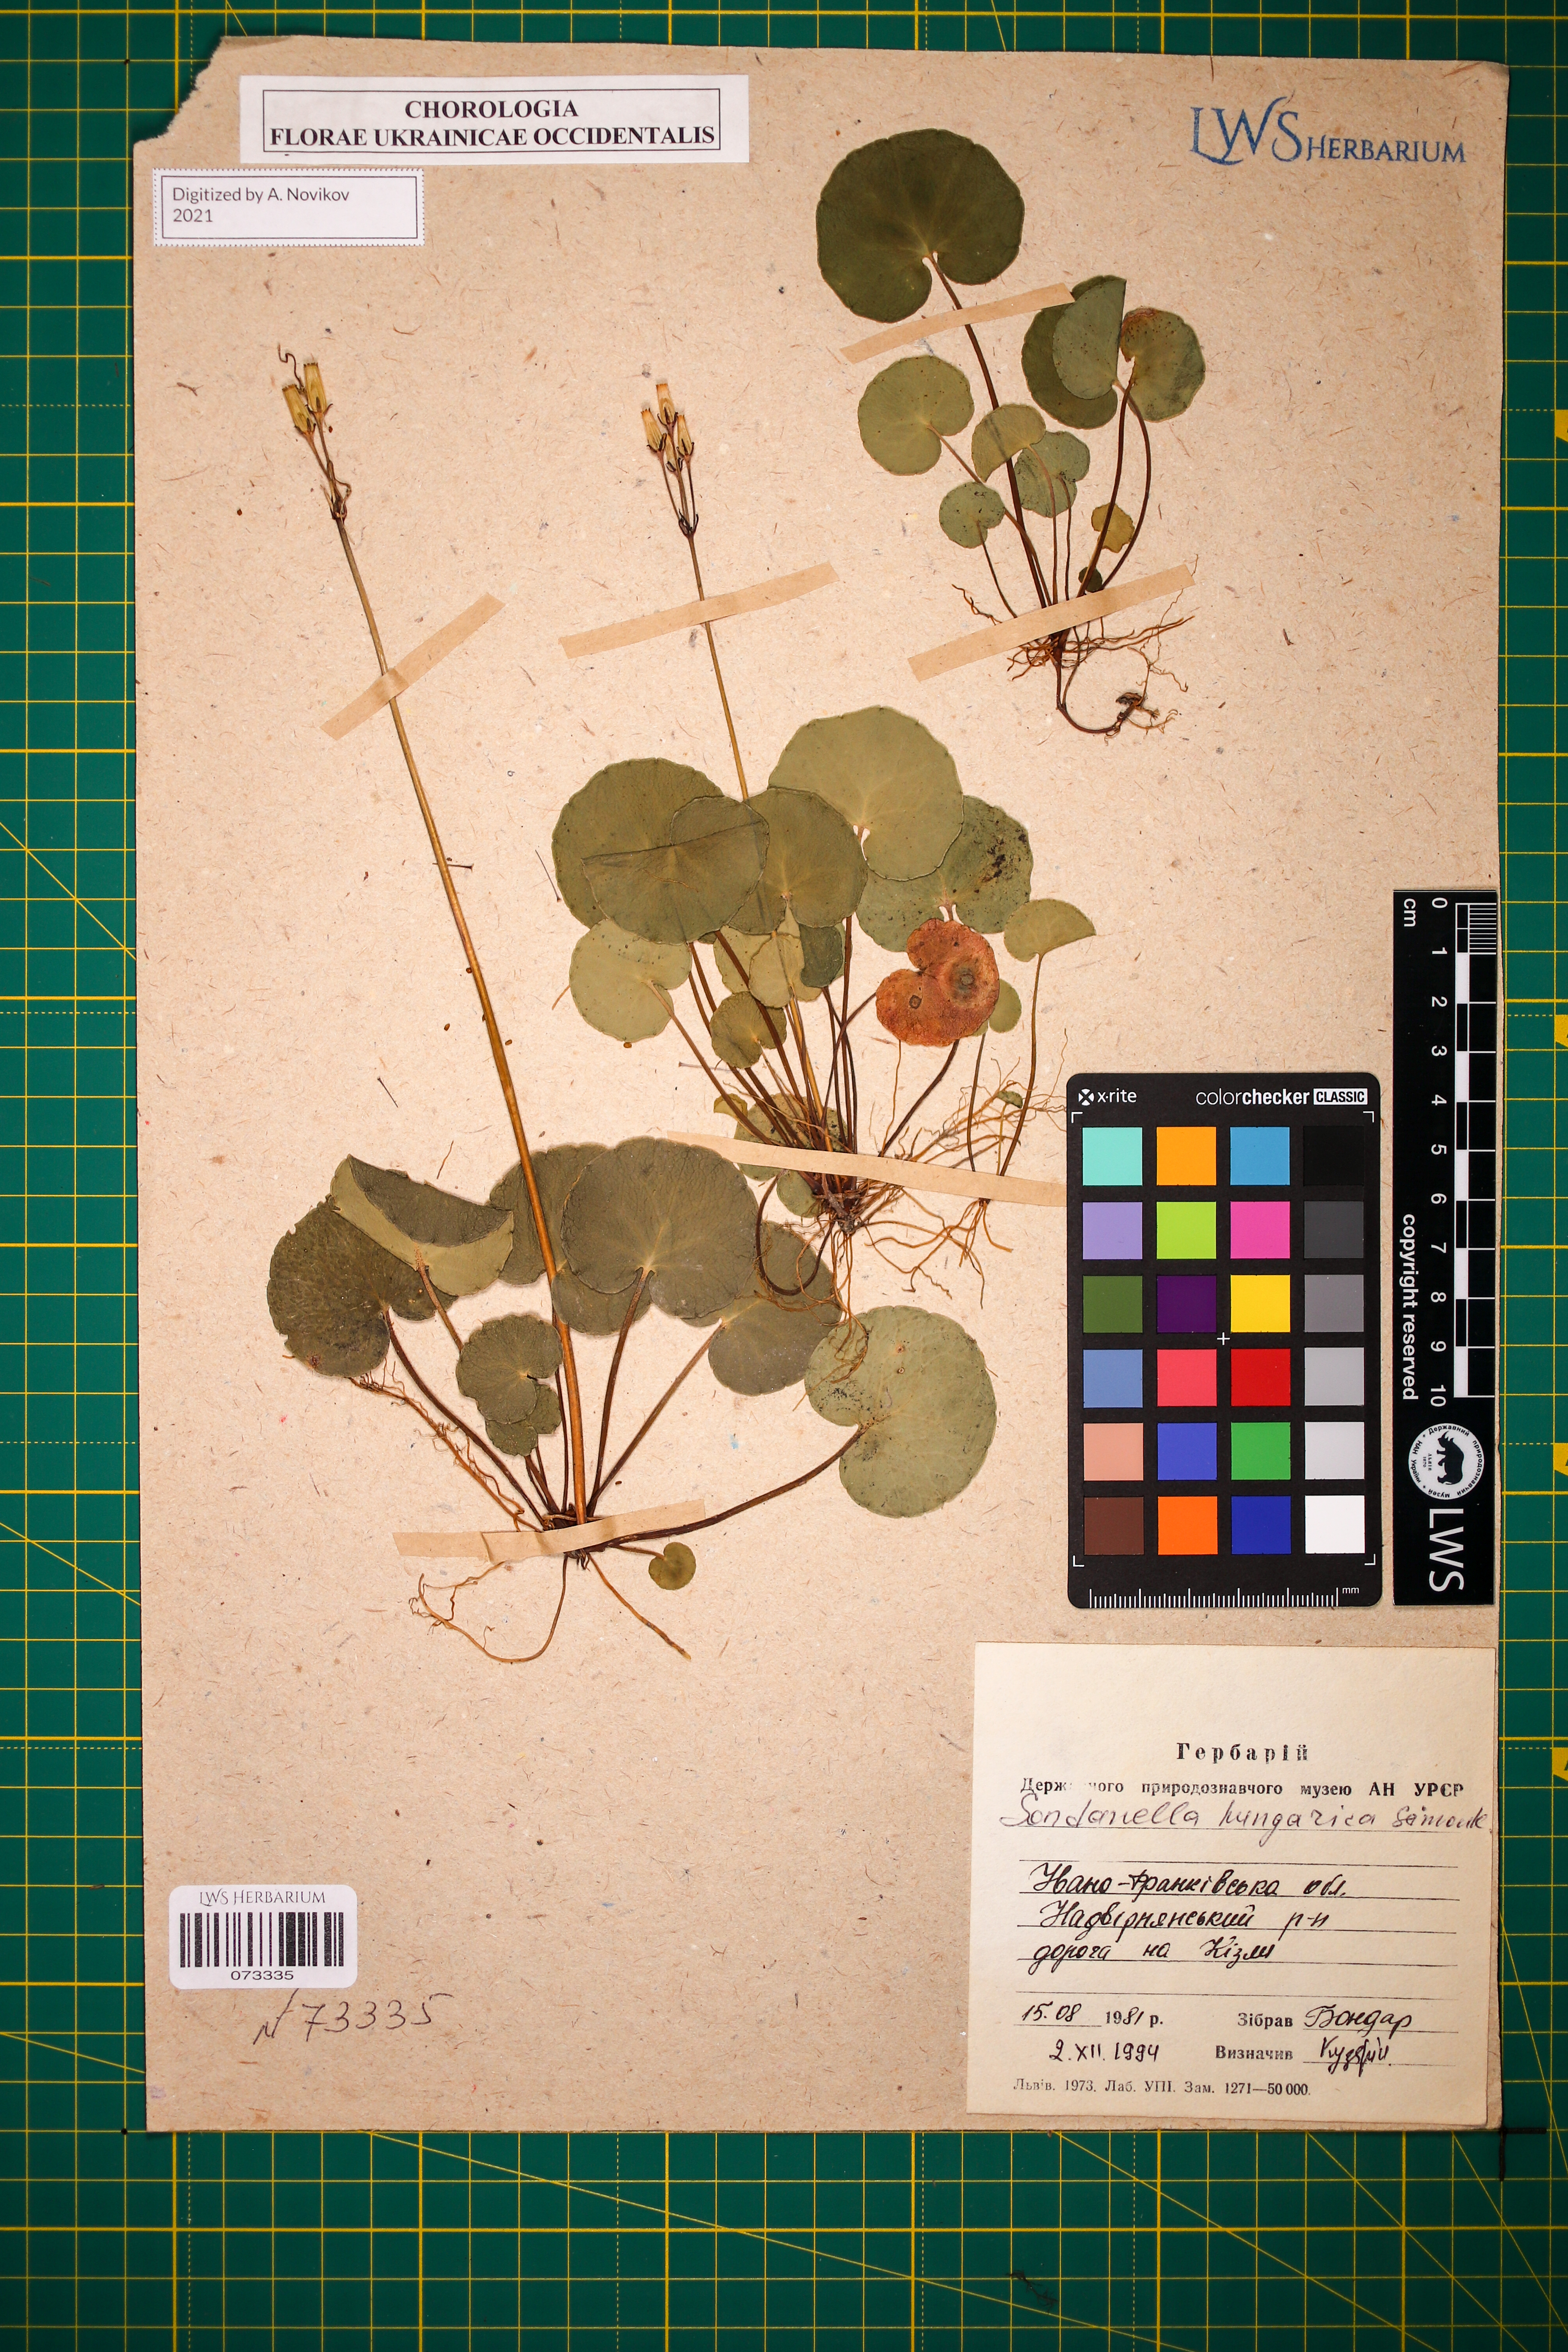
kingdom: Plantae
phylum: Tracheophyta
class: Magnoliopsida
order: Ericales
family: Primulaceae
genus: Soldanella
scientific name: Soldanella hungarica
